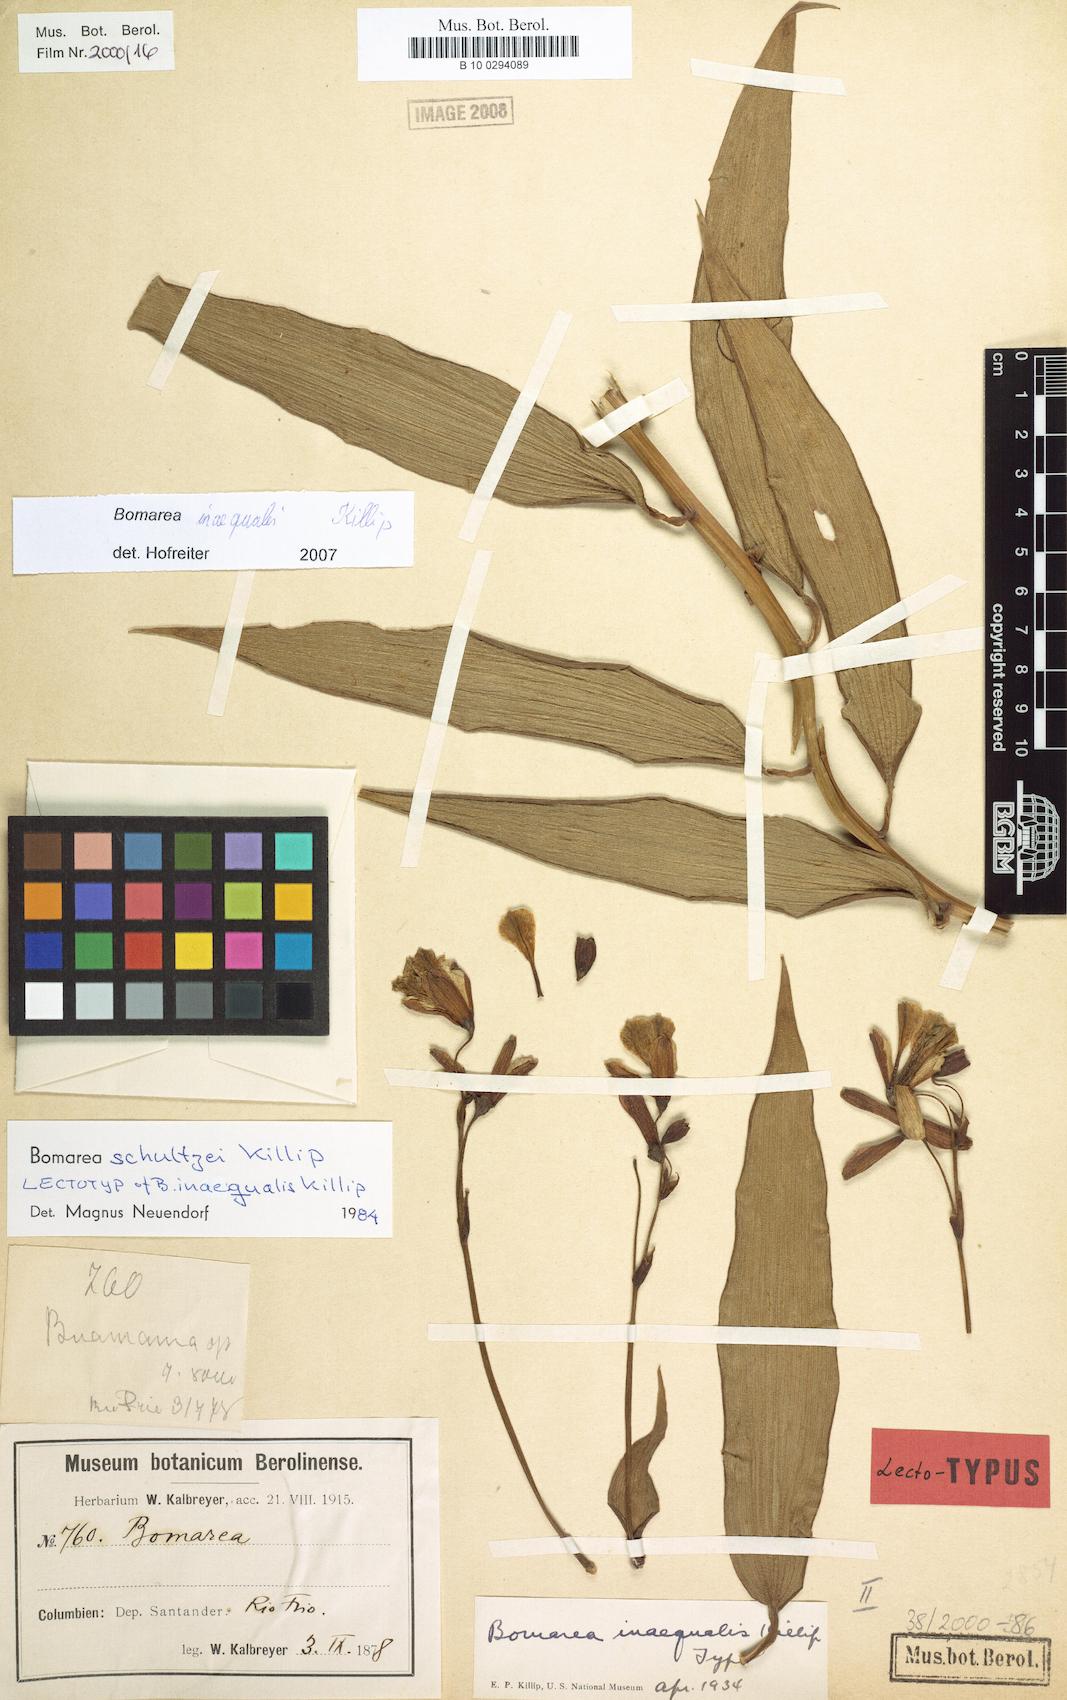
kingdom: Plantae
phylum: Tracheophyta
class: Liliopsida
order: Liliales
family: Alstroemeriaceae
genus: Bomarea
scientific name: Bomarea inaequalis
